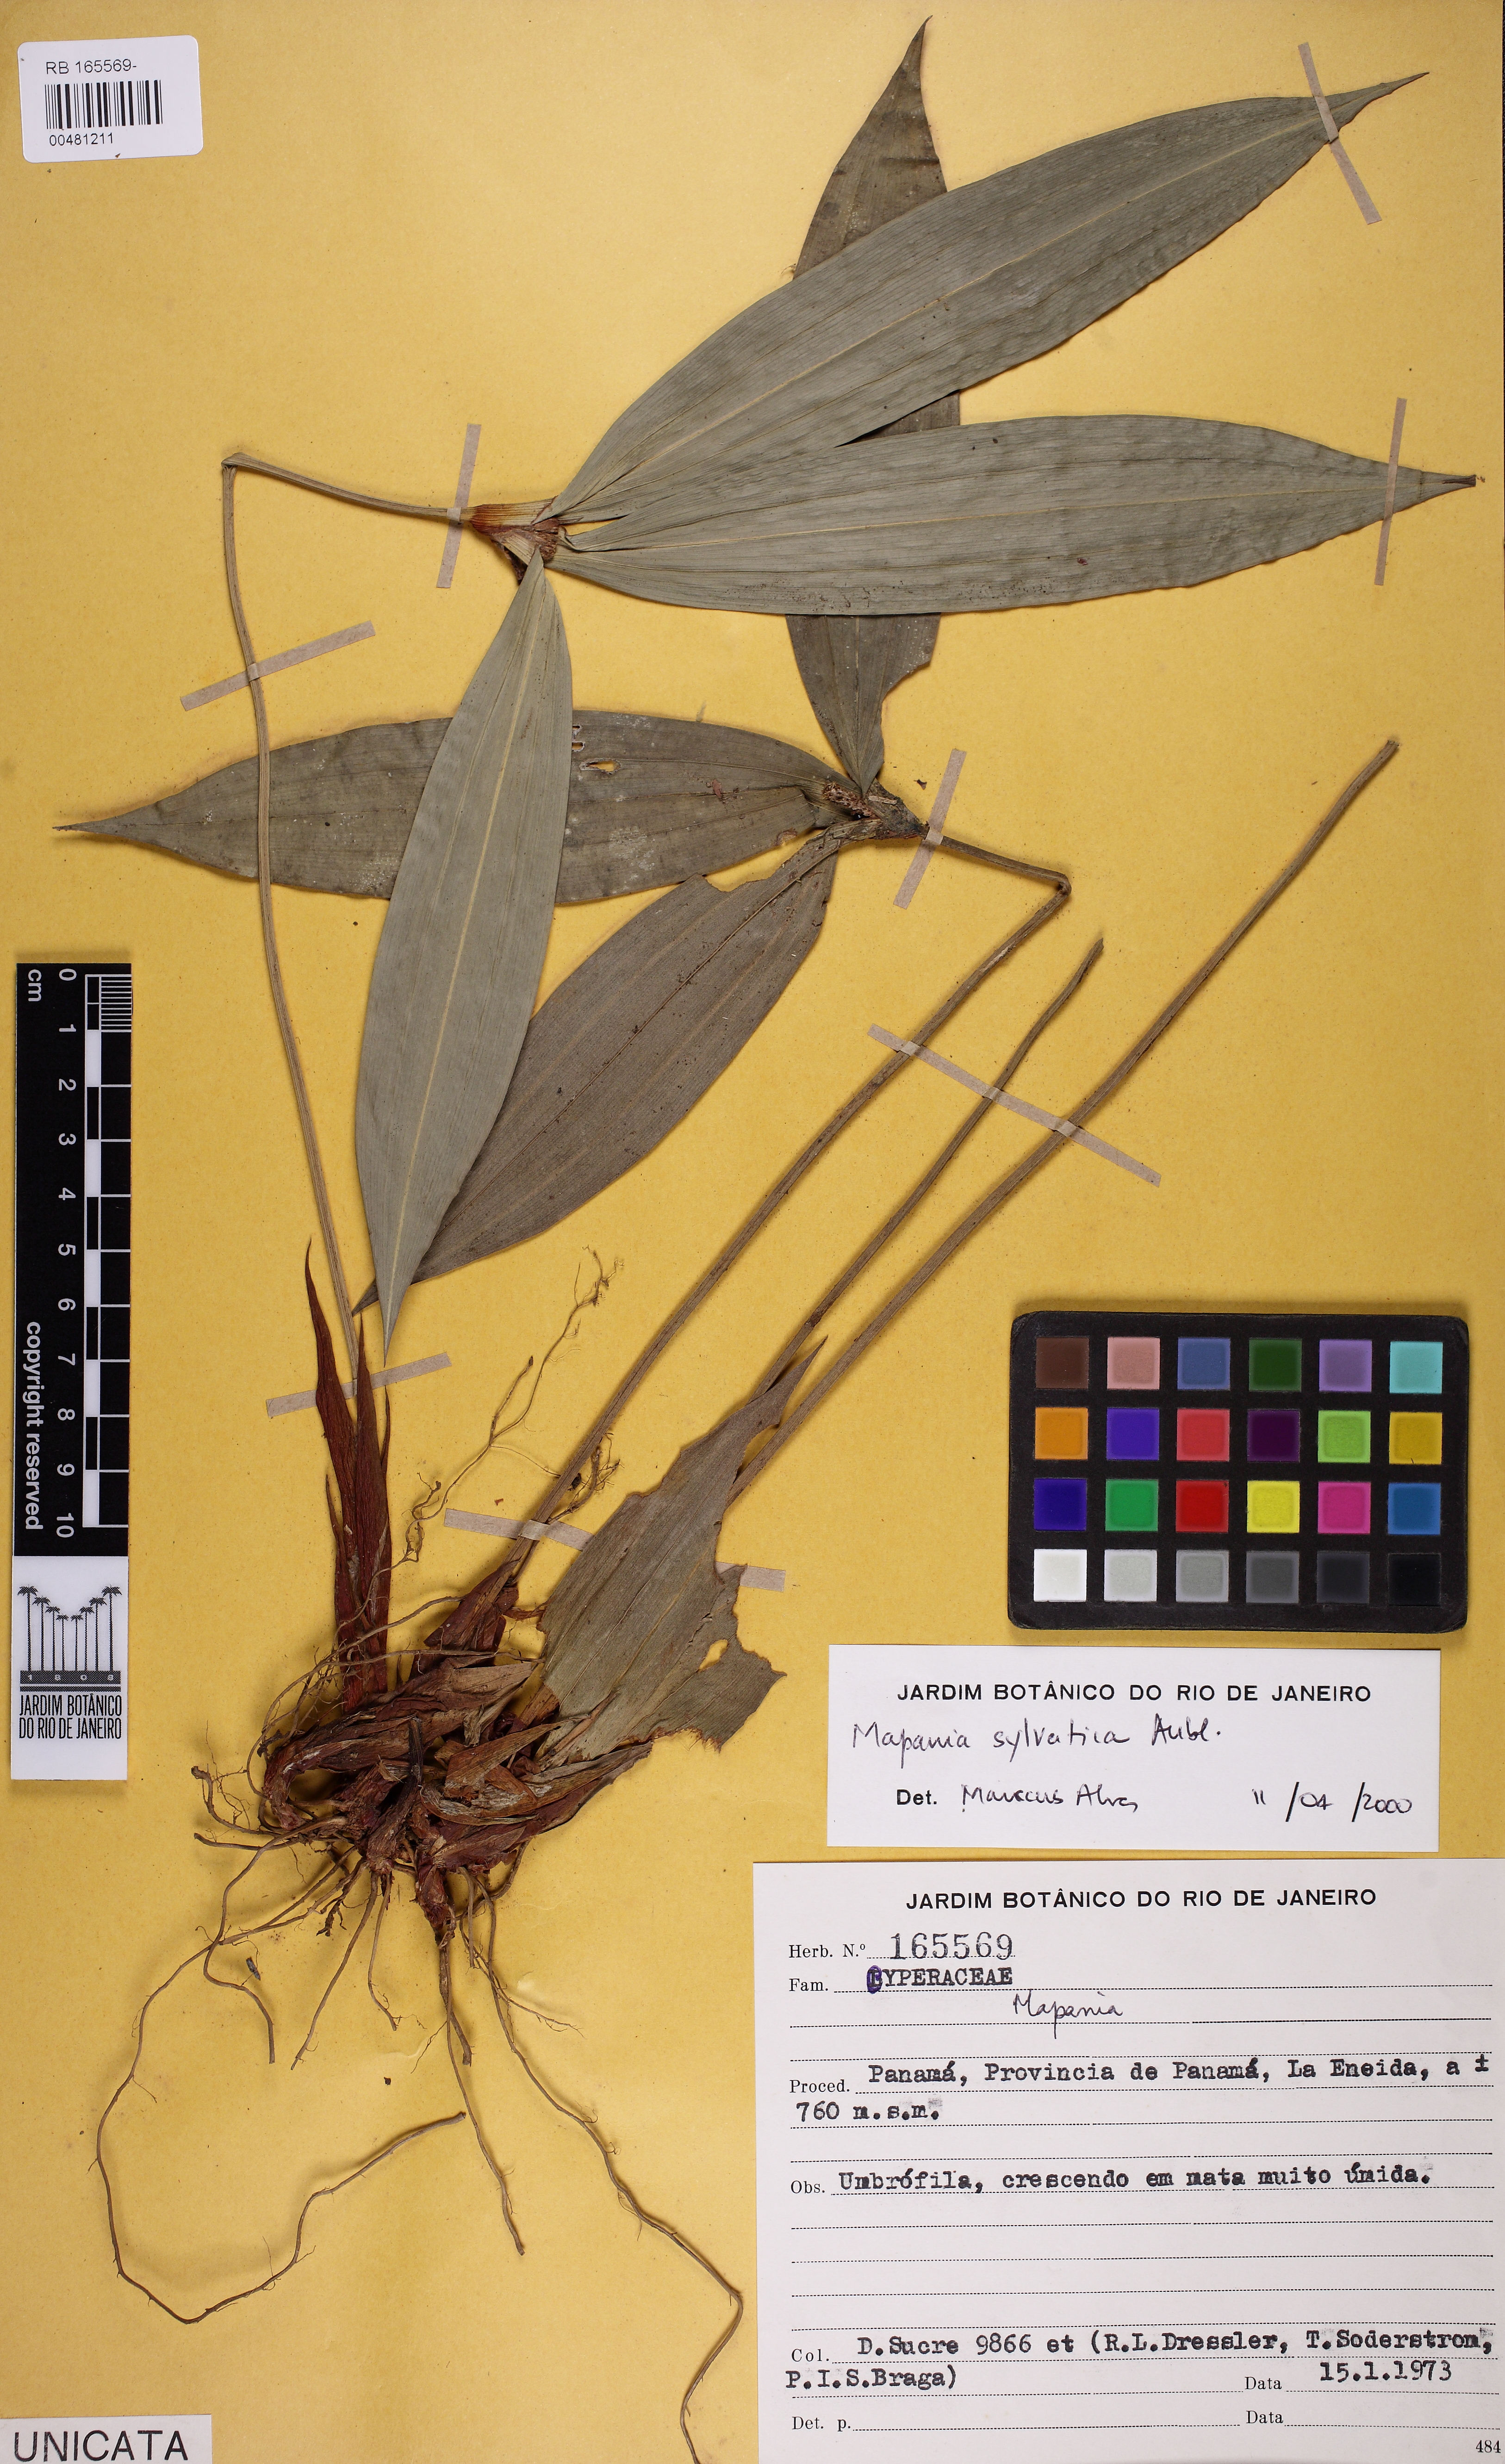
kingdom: Plantae
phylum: Tracheophyta
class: Liliopsida
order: Poales
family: Cyperaceae
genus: Mapania
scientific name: Mapania sylvatica
